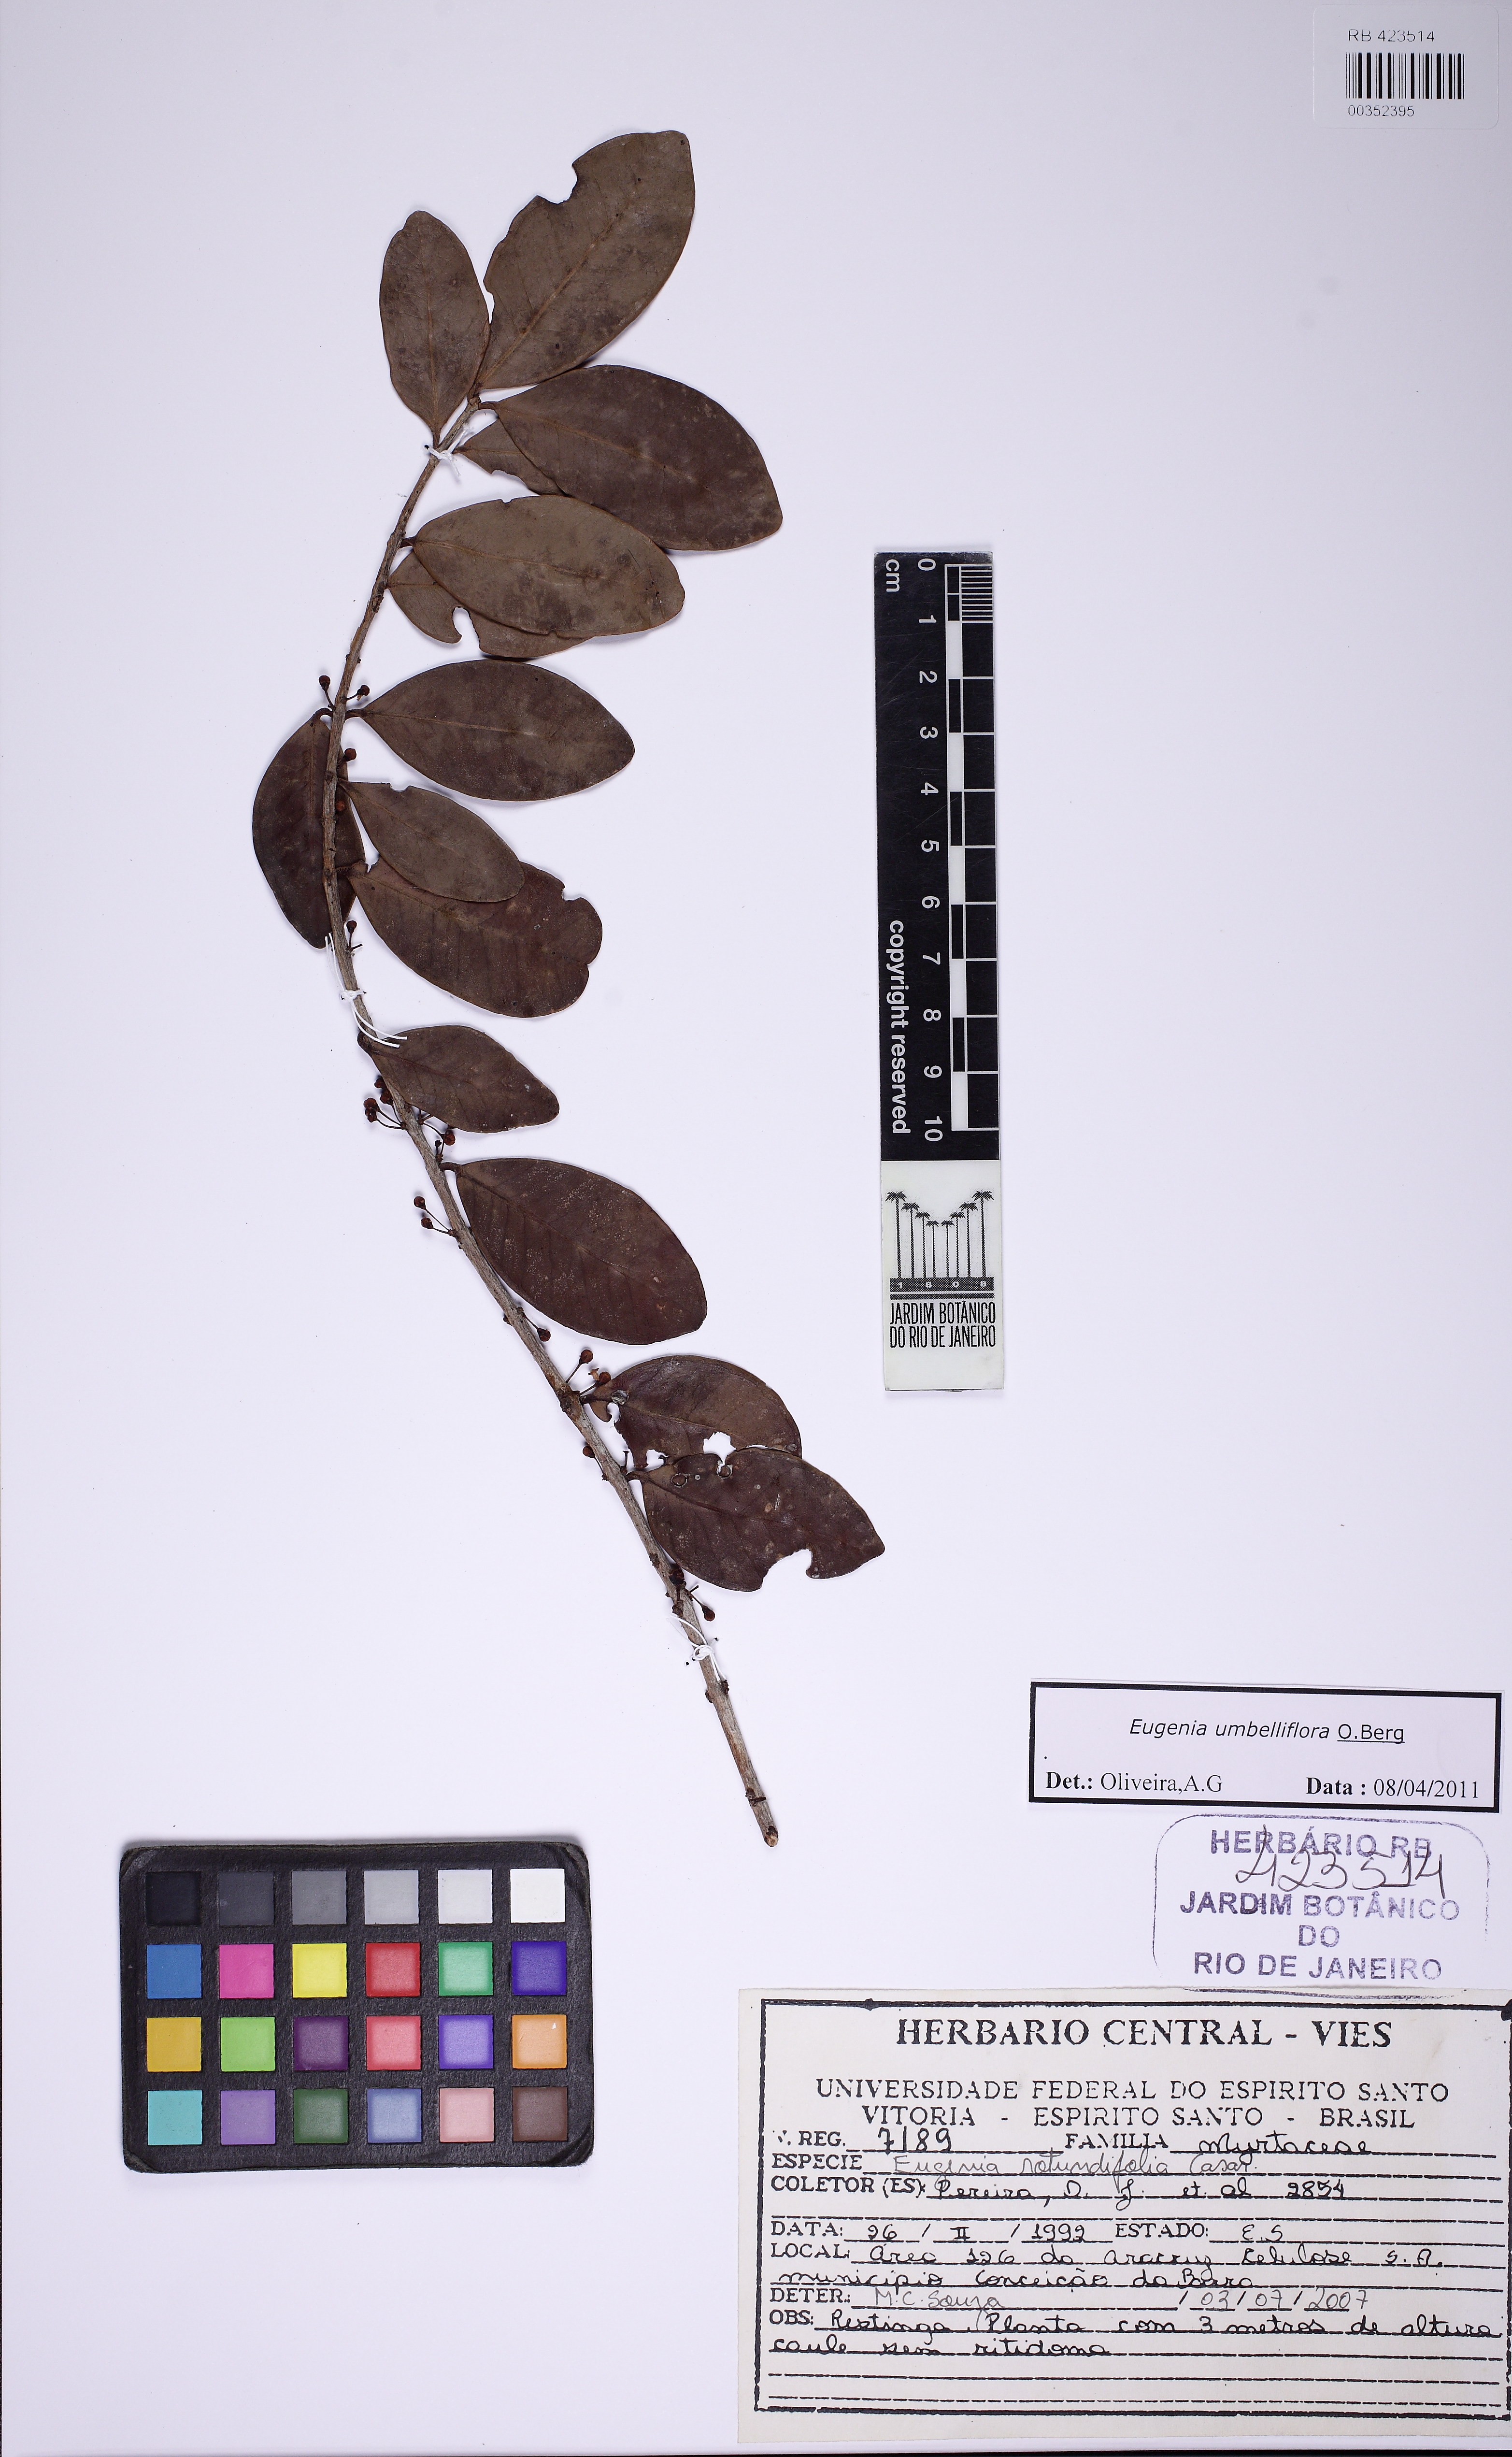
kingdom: Plantae
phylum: Tracheophyta
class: Magnoliopsida
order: Myrtales
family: Myrtaceae
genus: Eugenia
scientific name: Eugenia umbelliflora
